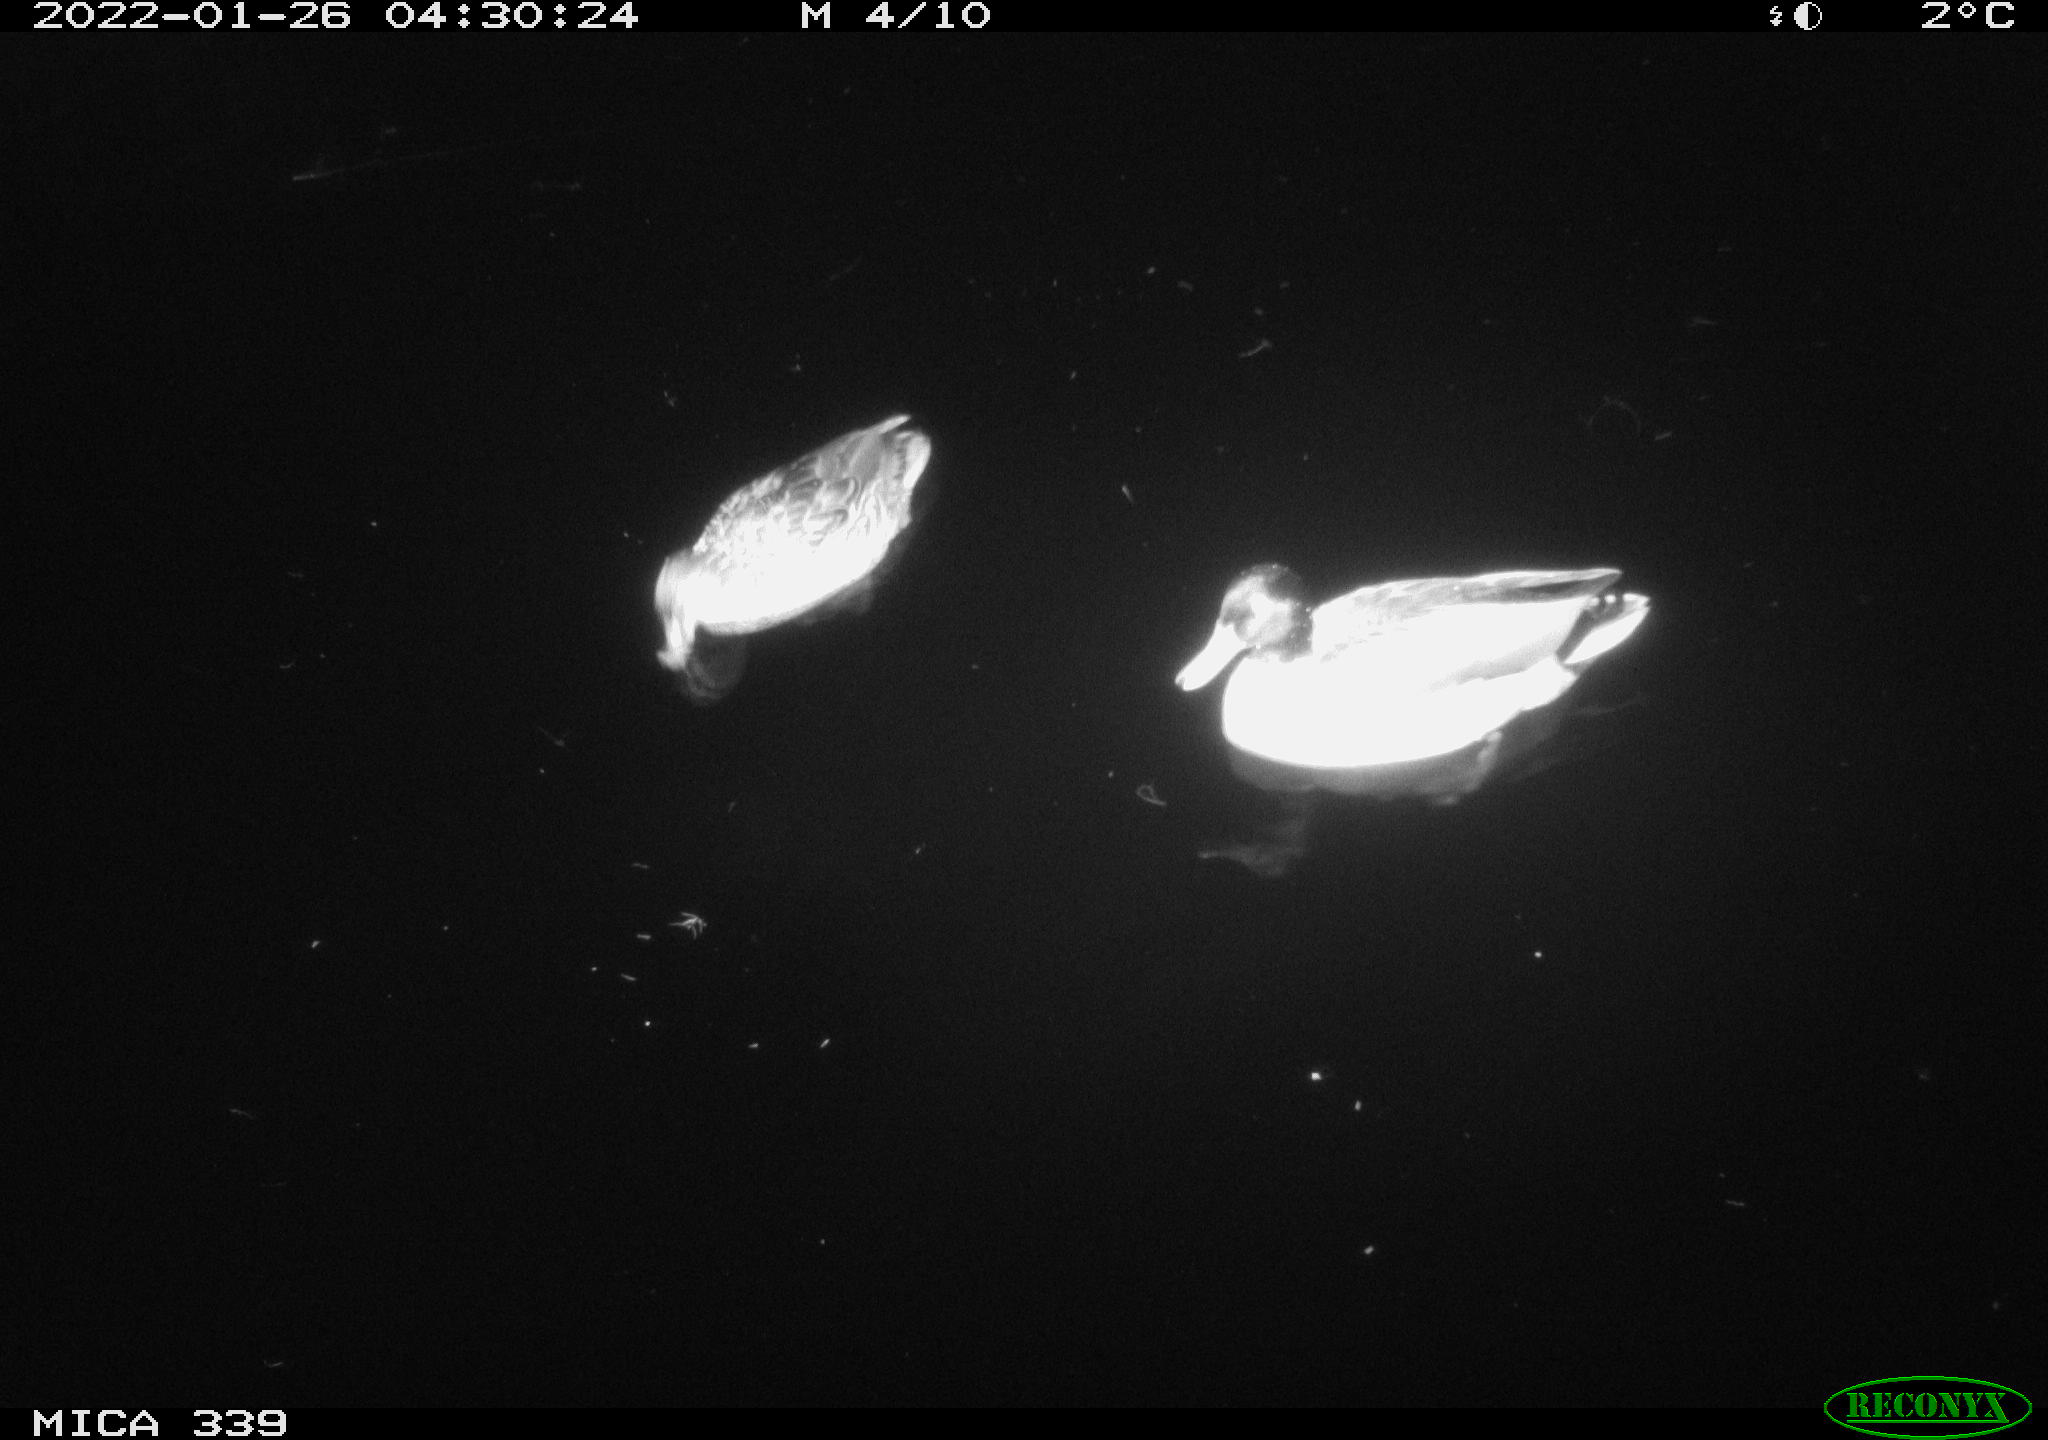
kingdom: Animalia
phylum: Chordata
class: Aves
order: Anseriformes
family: Anatidae
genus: Anas
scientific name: Anas platyrhynchos
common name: Mallard
